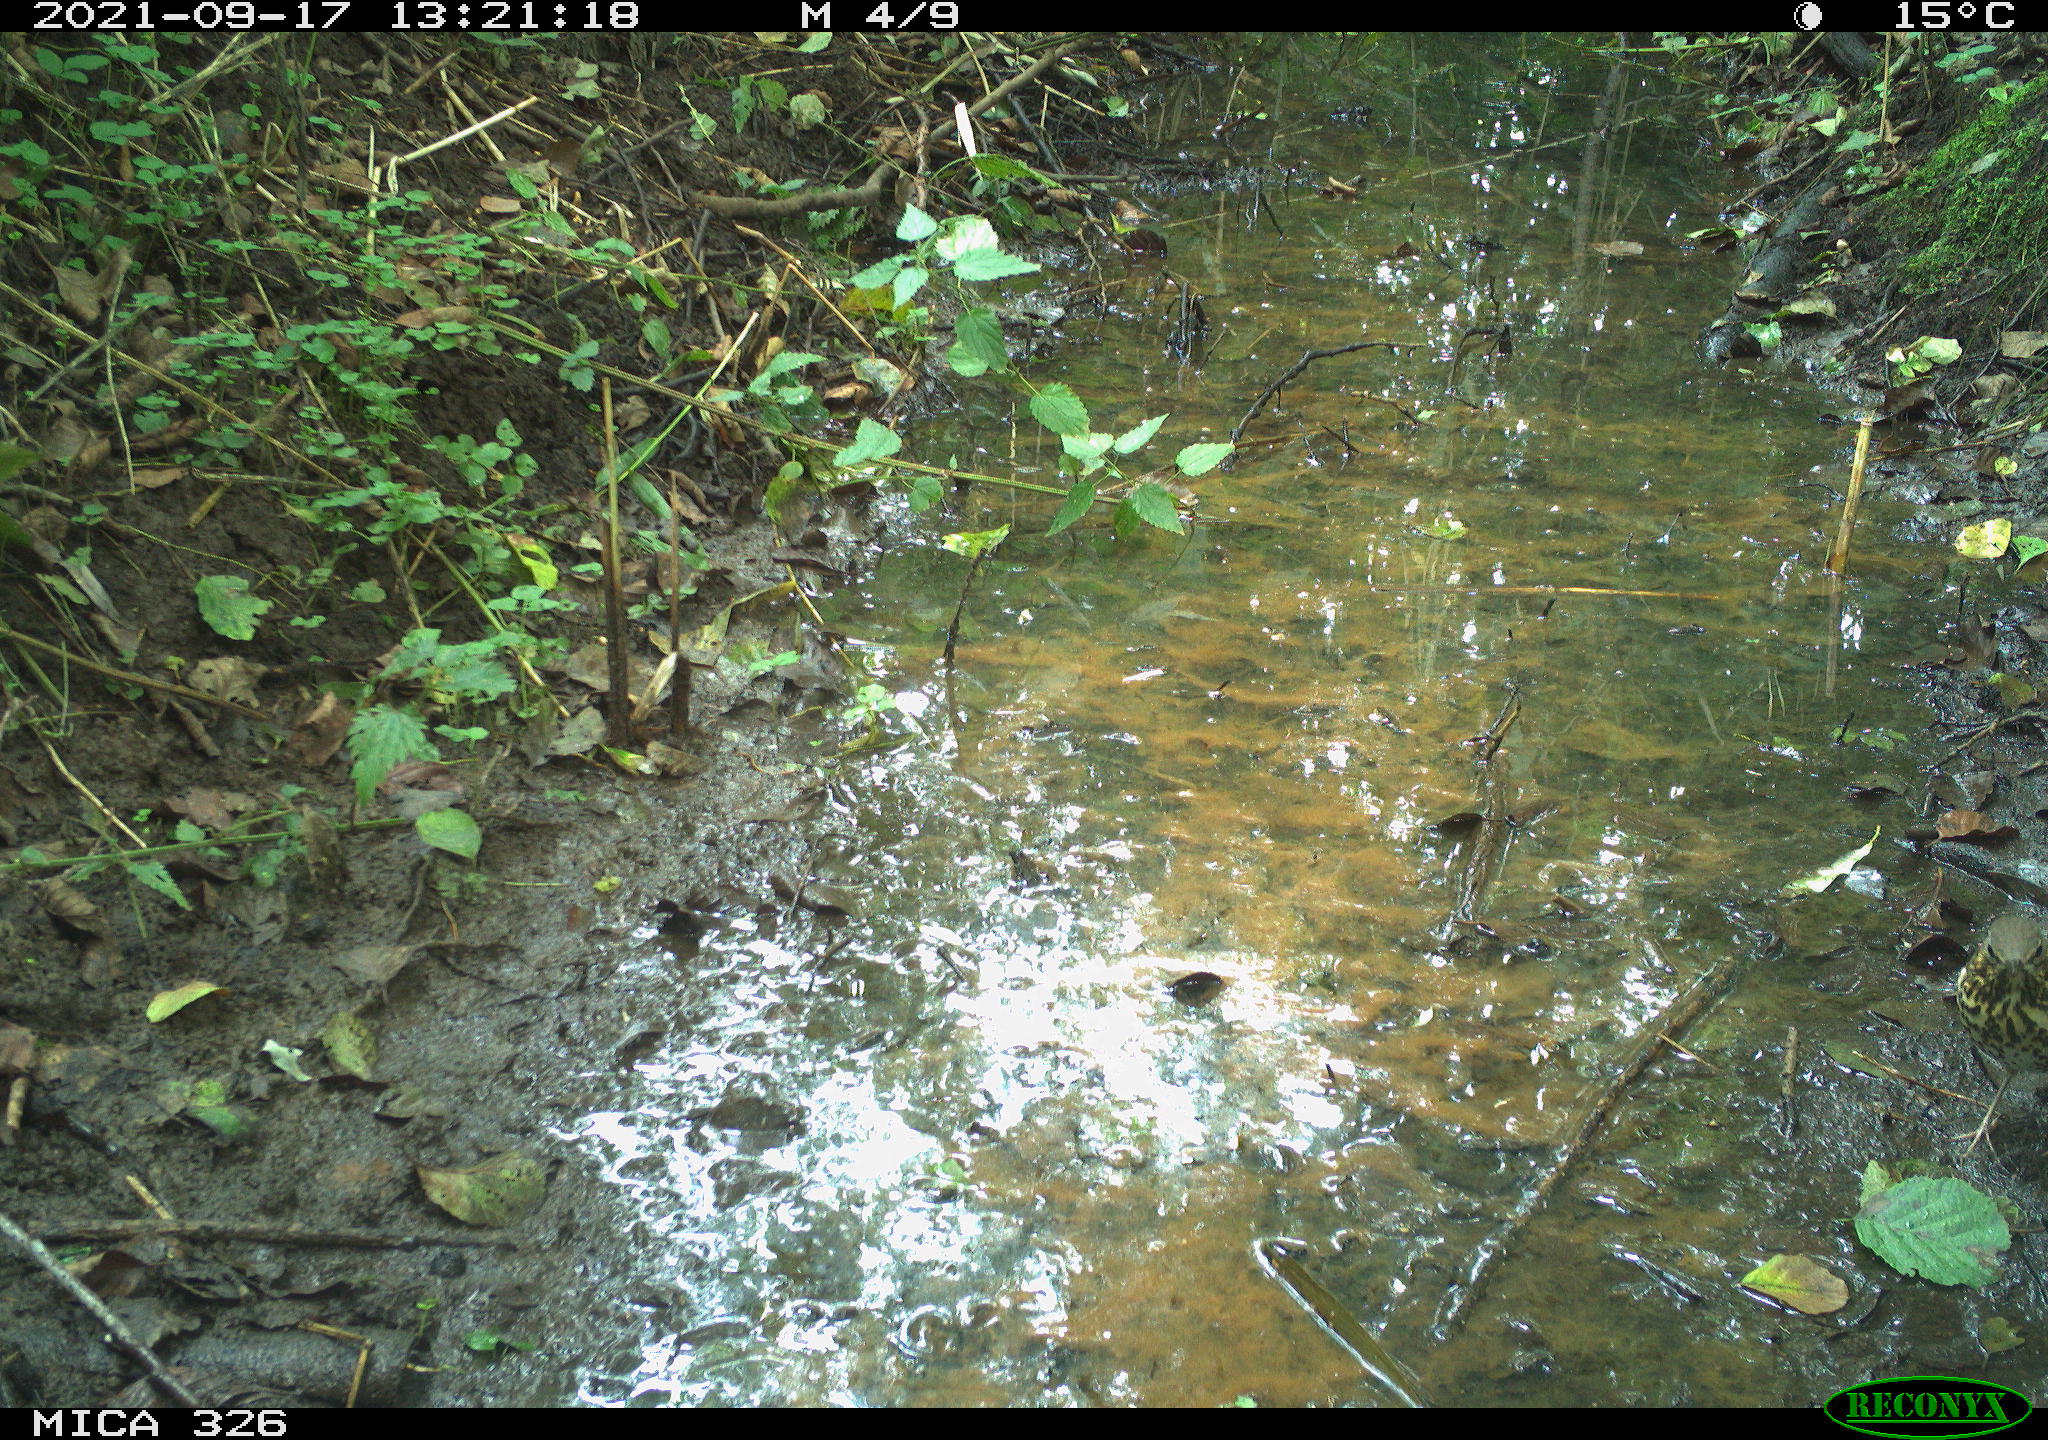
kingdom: Animalia
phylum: Chordata
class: Aves
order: Passeriformes
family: Turdidae
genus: Turdus
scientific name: Turdus philomelos
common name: Song thrush
